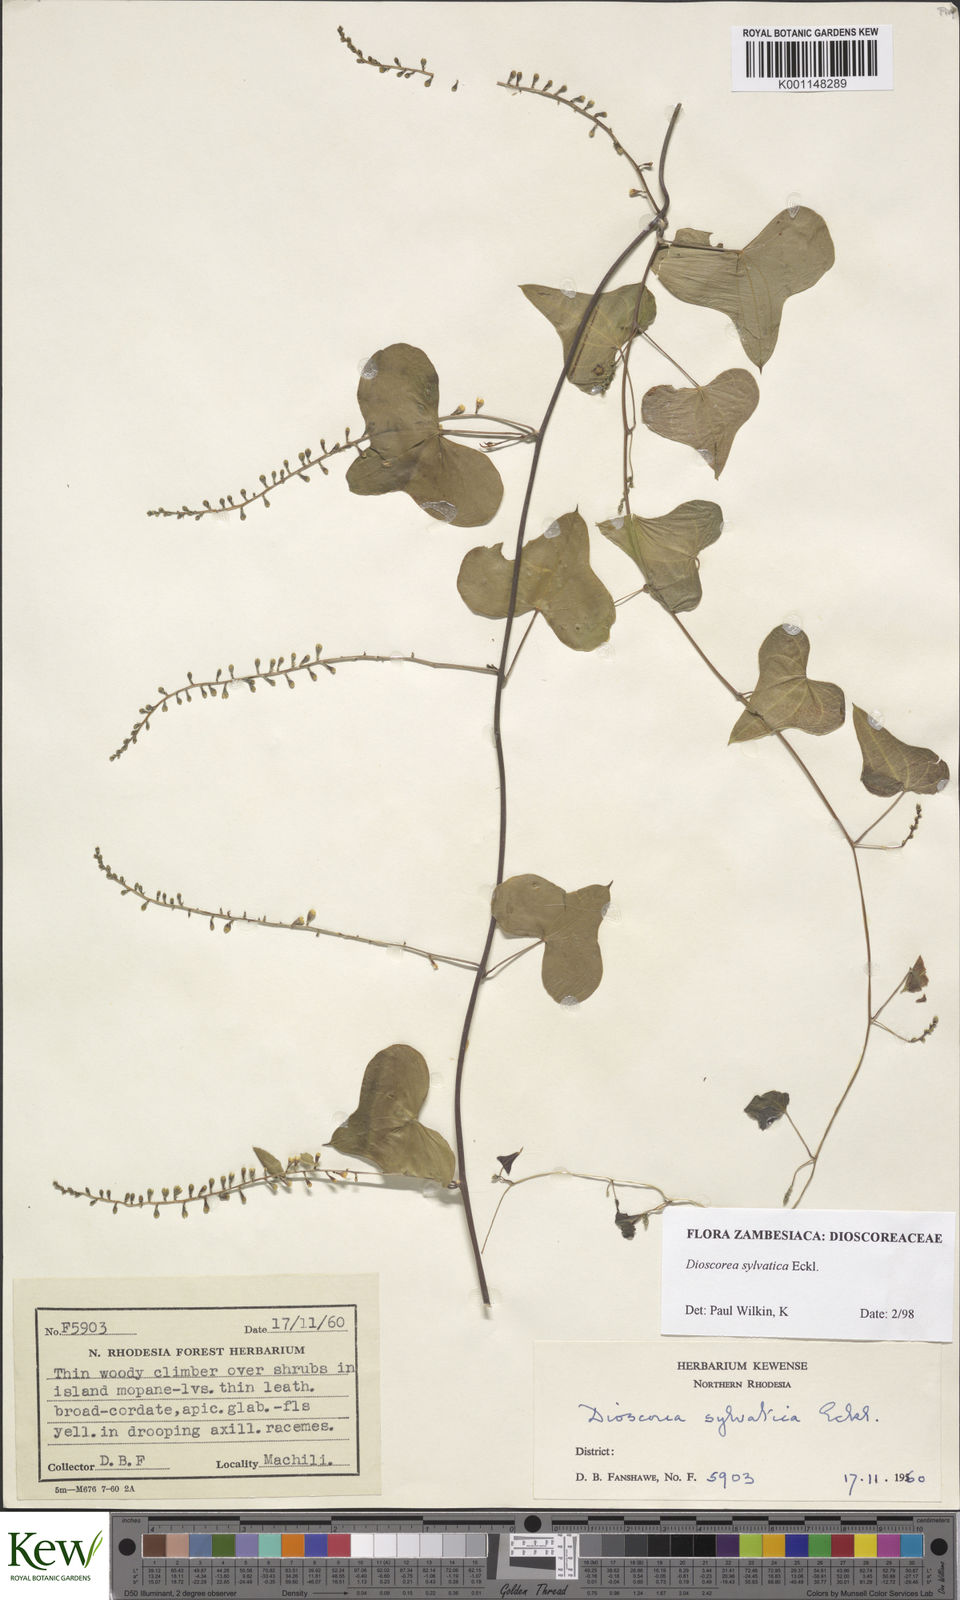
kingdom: Plantae
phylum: Tracheophyta
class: Liliopsida
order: Dioscoreales
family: Dioscoreaceae
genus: Dioscorea
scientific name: Dioscorea sylvatica
